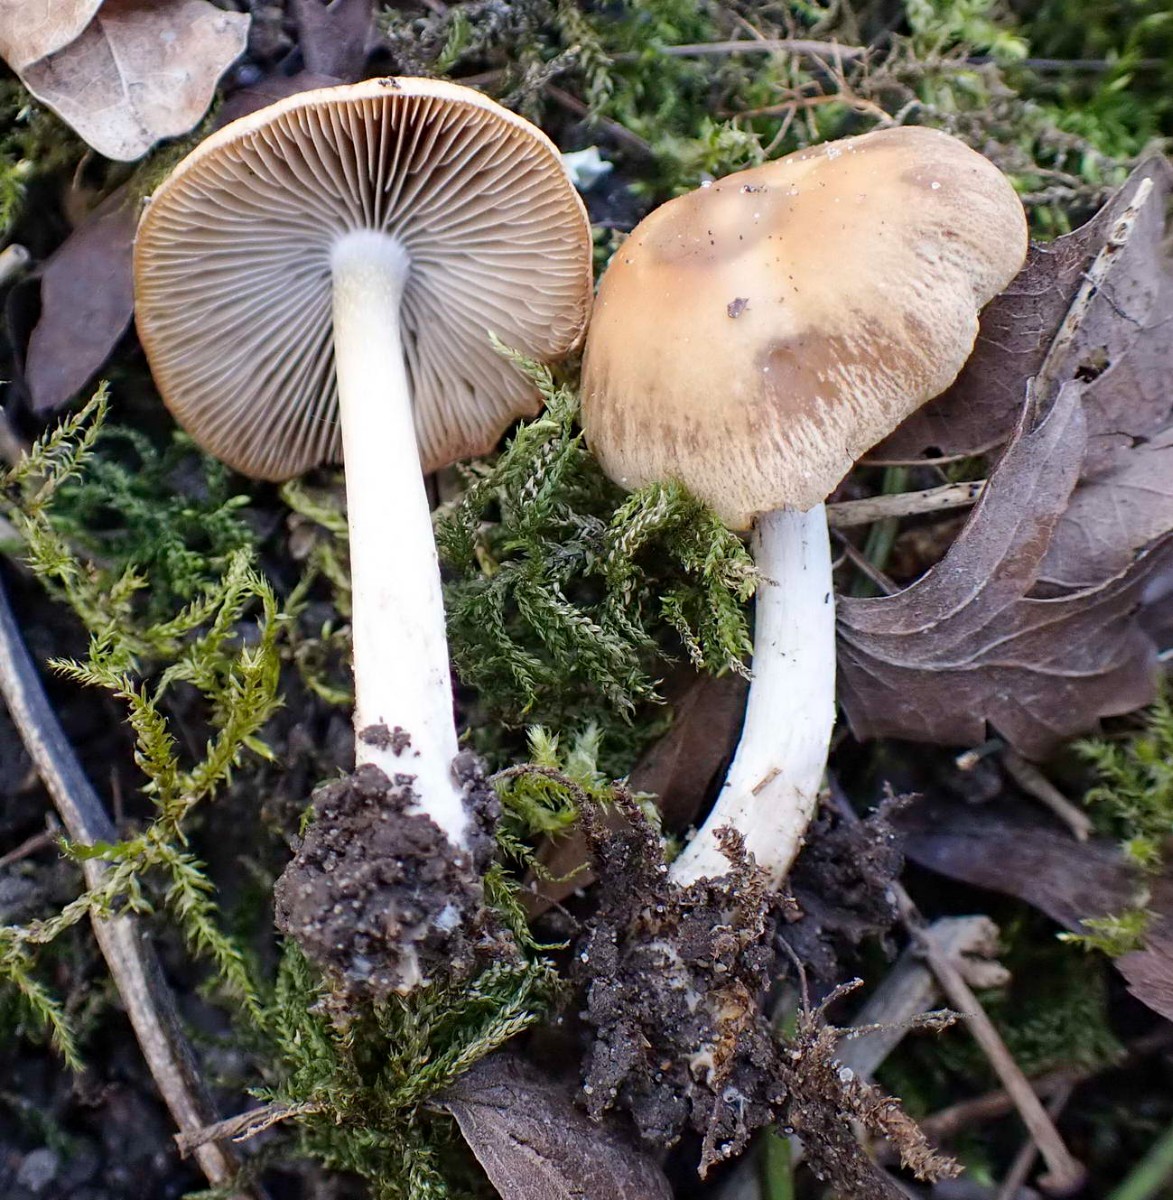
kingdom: Fungi
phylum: Basidiomycota
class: Agaricomycetes
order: Agaricales
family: Psathyrellaceae
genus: Psathyrella
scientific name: Psathyrella spadiceogrisea
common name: gråbrun mørkhat
